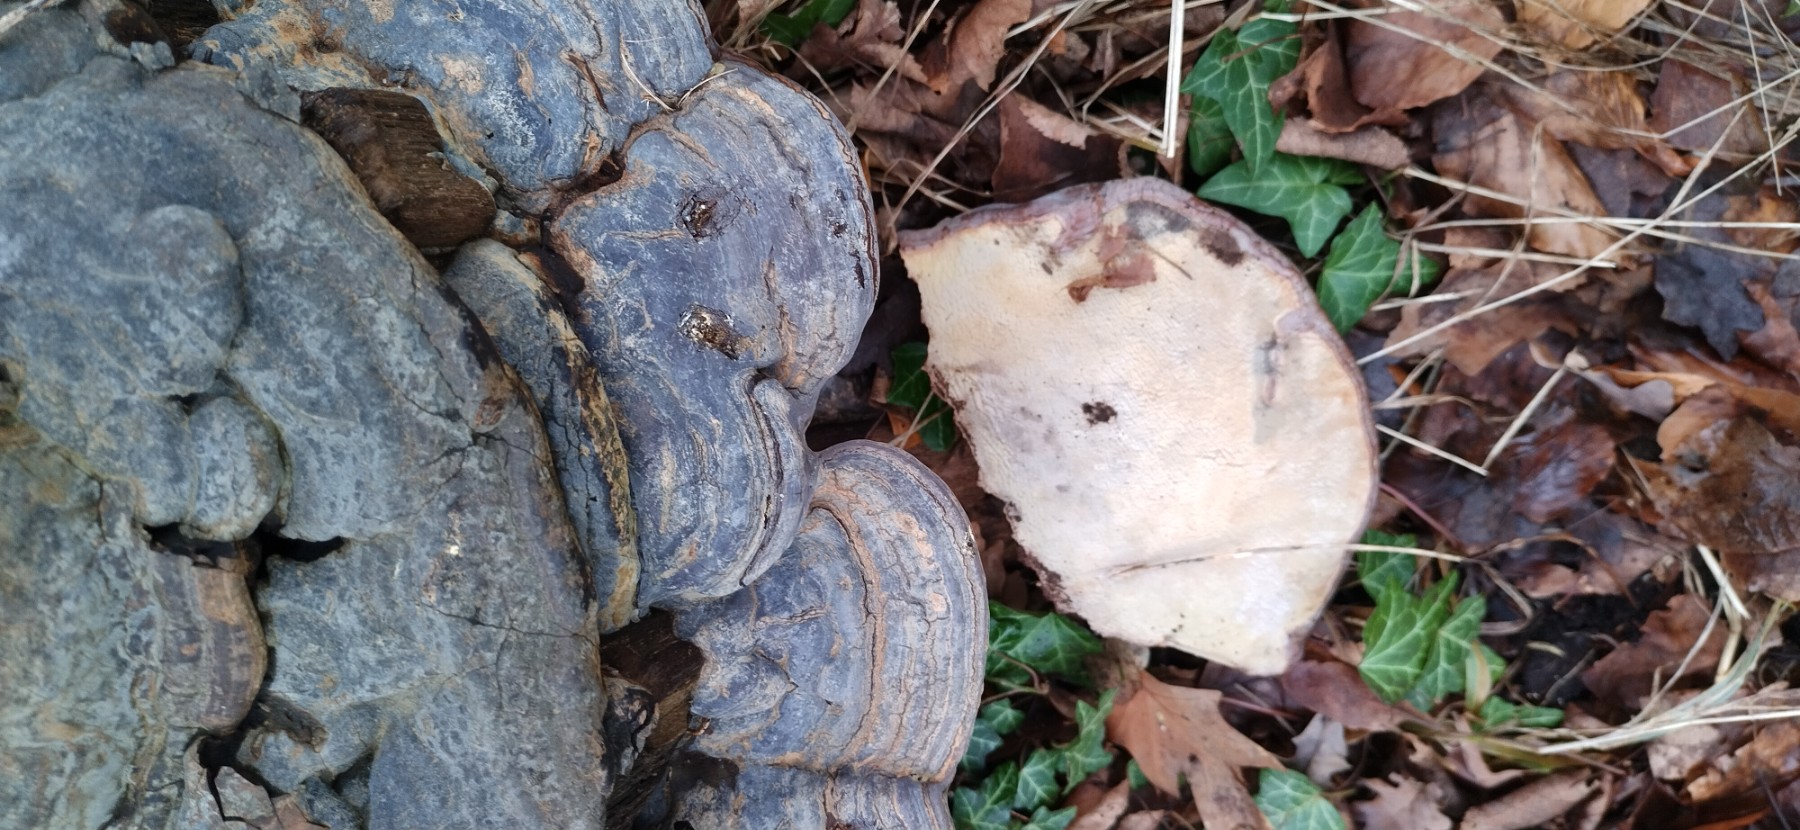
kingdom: Fungi
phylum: Basidiomycota
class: Agaricomycetes
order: Polyporales
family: Polyporaceae
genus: Ganoderma
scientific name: Ganoderma pfeifferi
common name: kobberrød lakporesvamp
